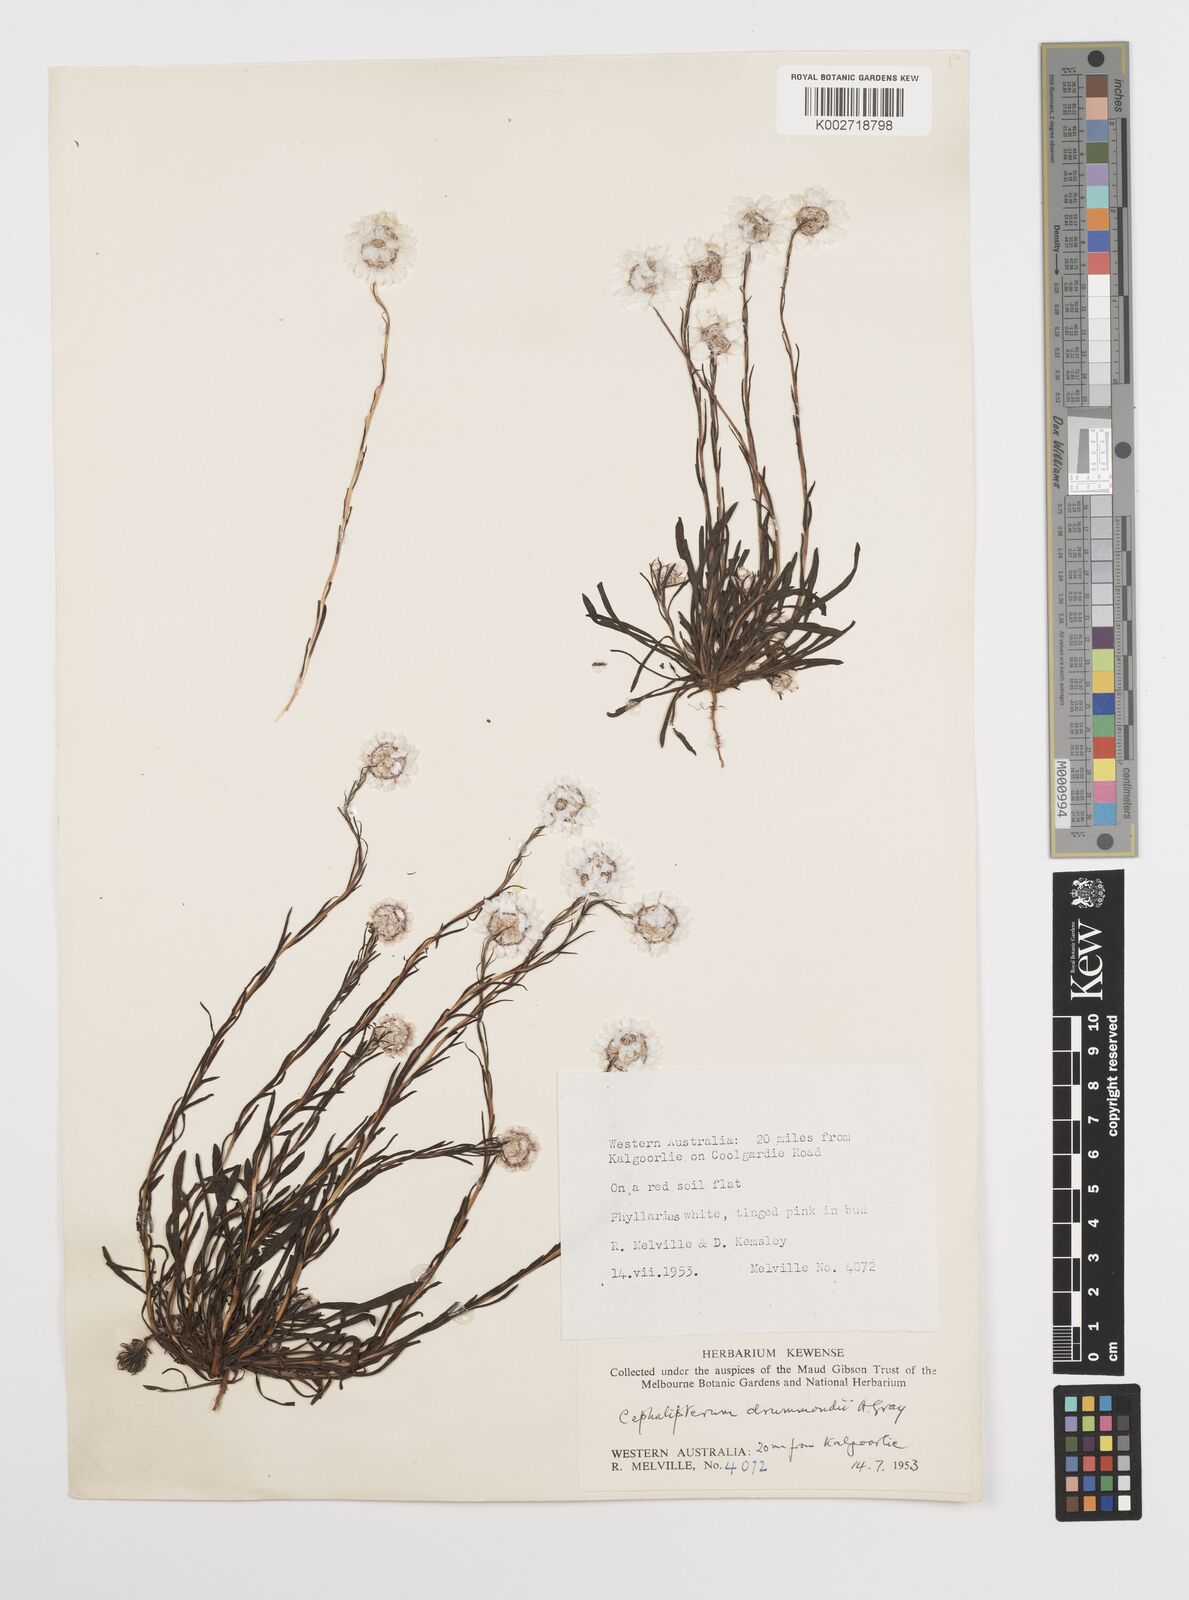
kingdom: Plantae
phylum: Tracheophyta
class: Magnoliopsida
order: Asterales
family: Asteraceae
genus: Cephalipterum
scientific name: Cephalipterum drummondii
